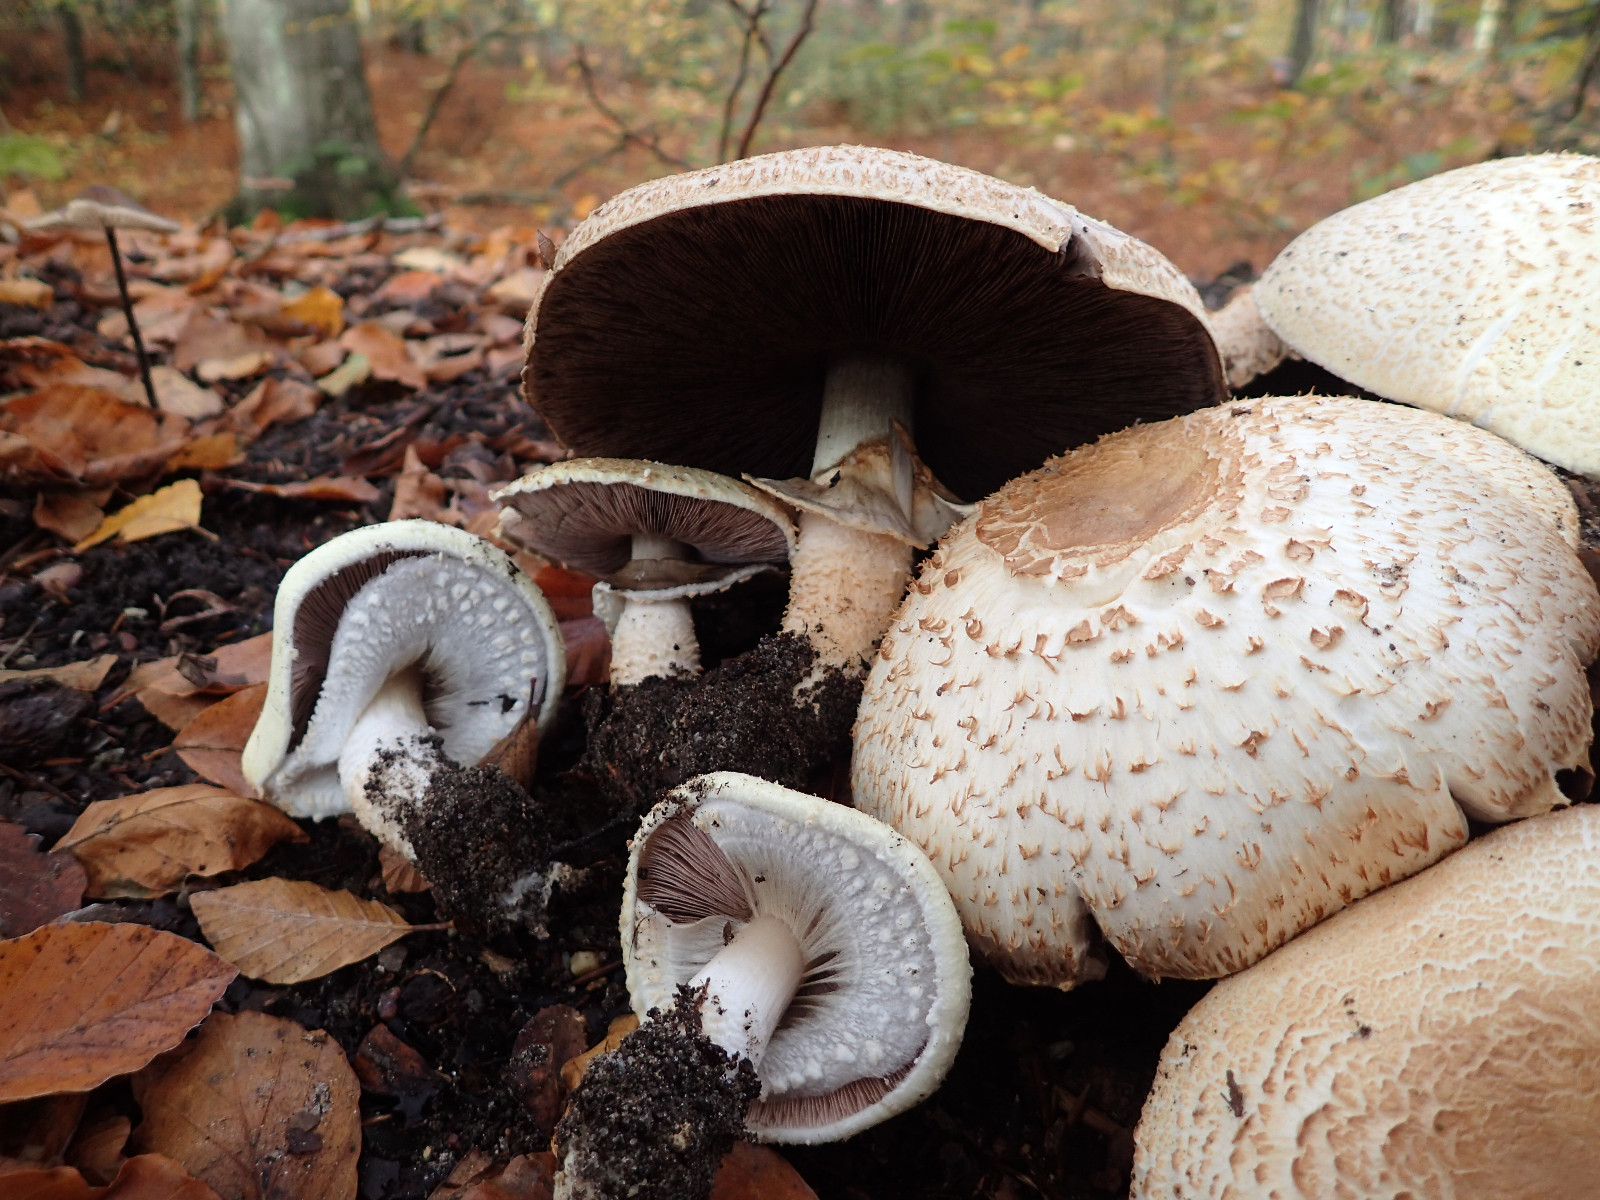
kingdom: Fungi
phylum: Basidiomycota
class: Agaricomycetes
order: Agaricales
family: Agaricaceae
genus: Agaricus
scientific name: Agaricus augustus
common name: prægtig champignon
